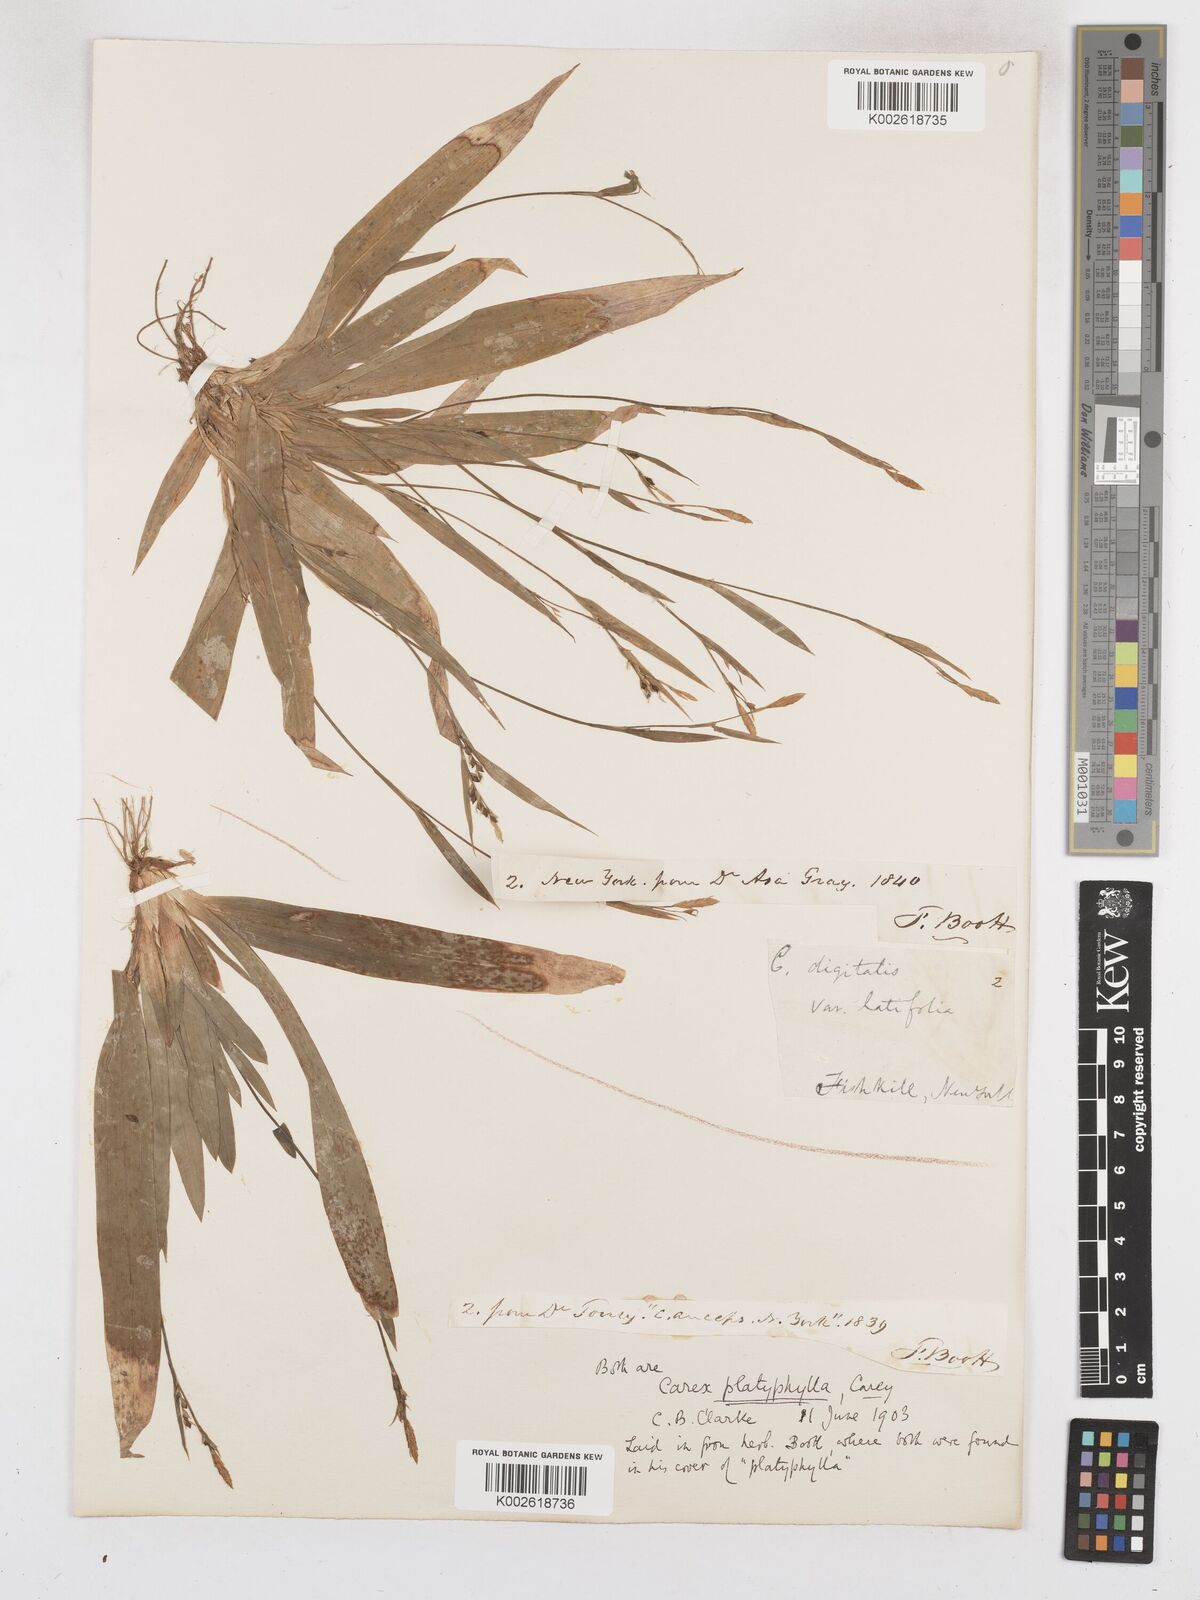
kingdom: Plantae
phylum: Tracheophyta
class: Liliopsida
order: Poales
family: Cyperaceae
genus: Carex
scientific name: Carex platyphylla
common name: Broad-leaved sedge
